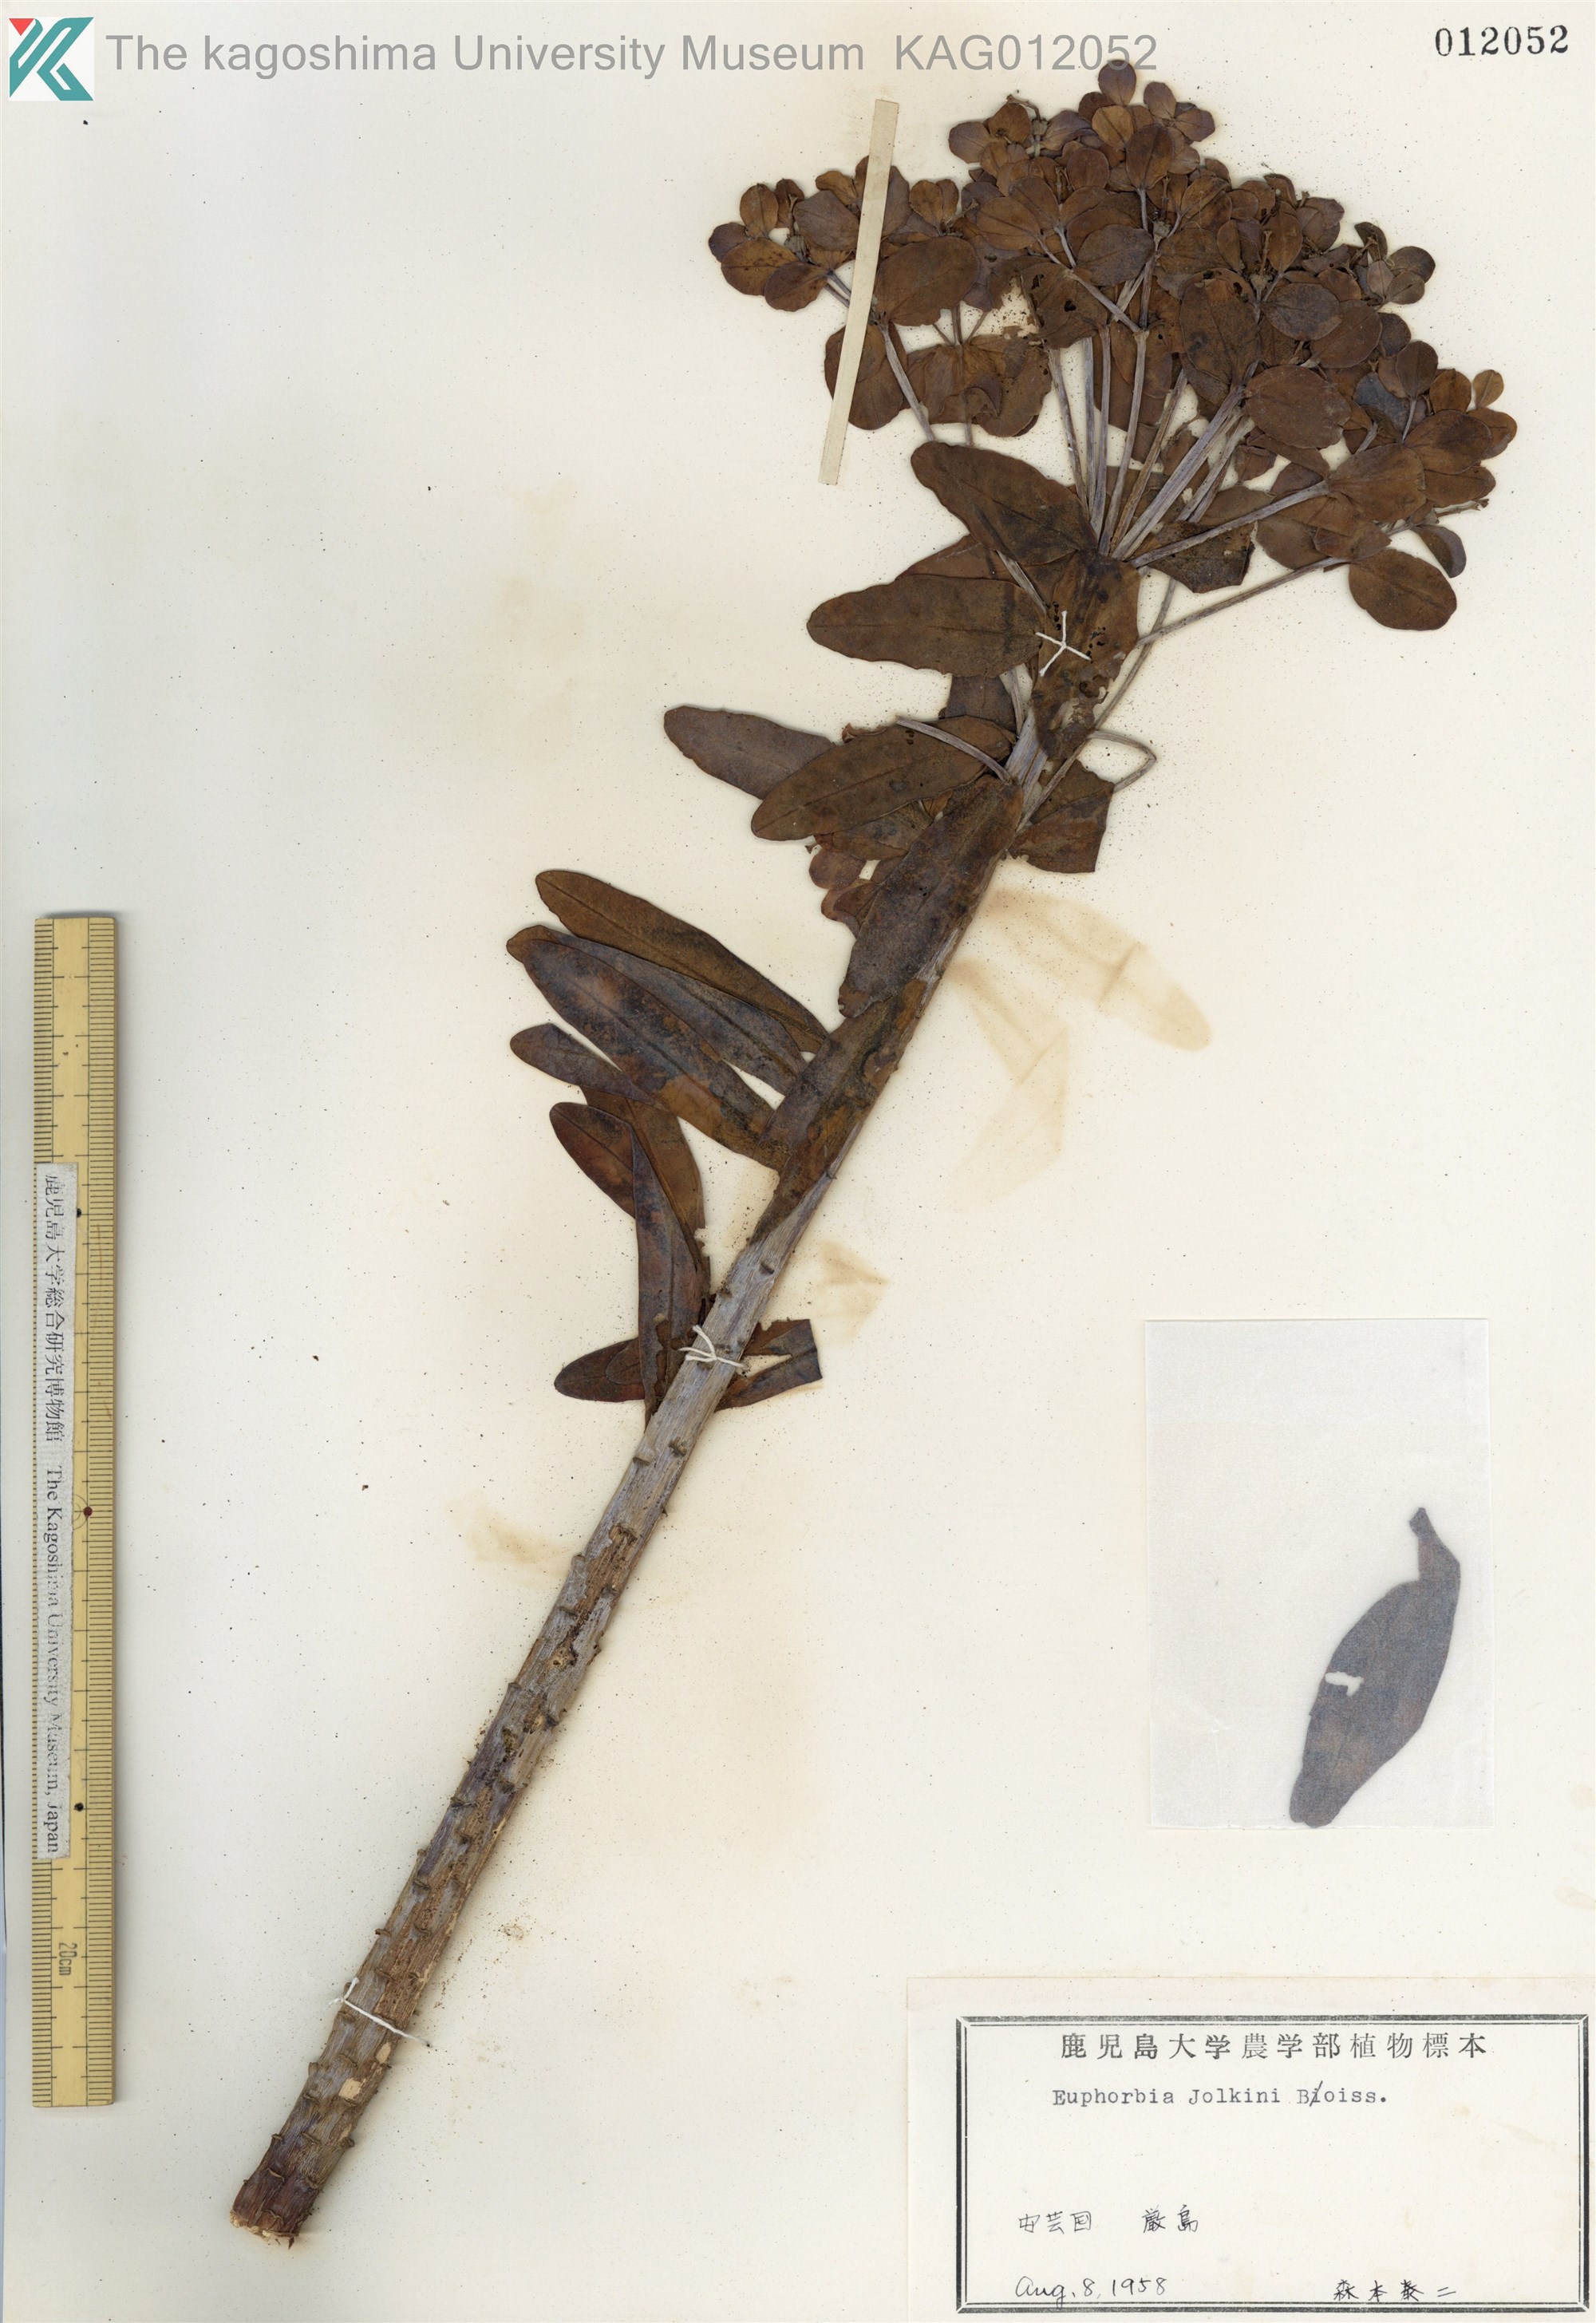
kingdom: Plantae
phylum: Tracheophyta
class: Magnoliopsida
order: Malpighiales
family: Euphorbiaceae
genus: Euphorbia
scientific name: Euphorbia jolkinii
